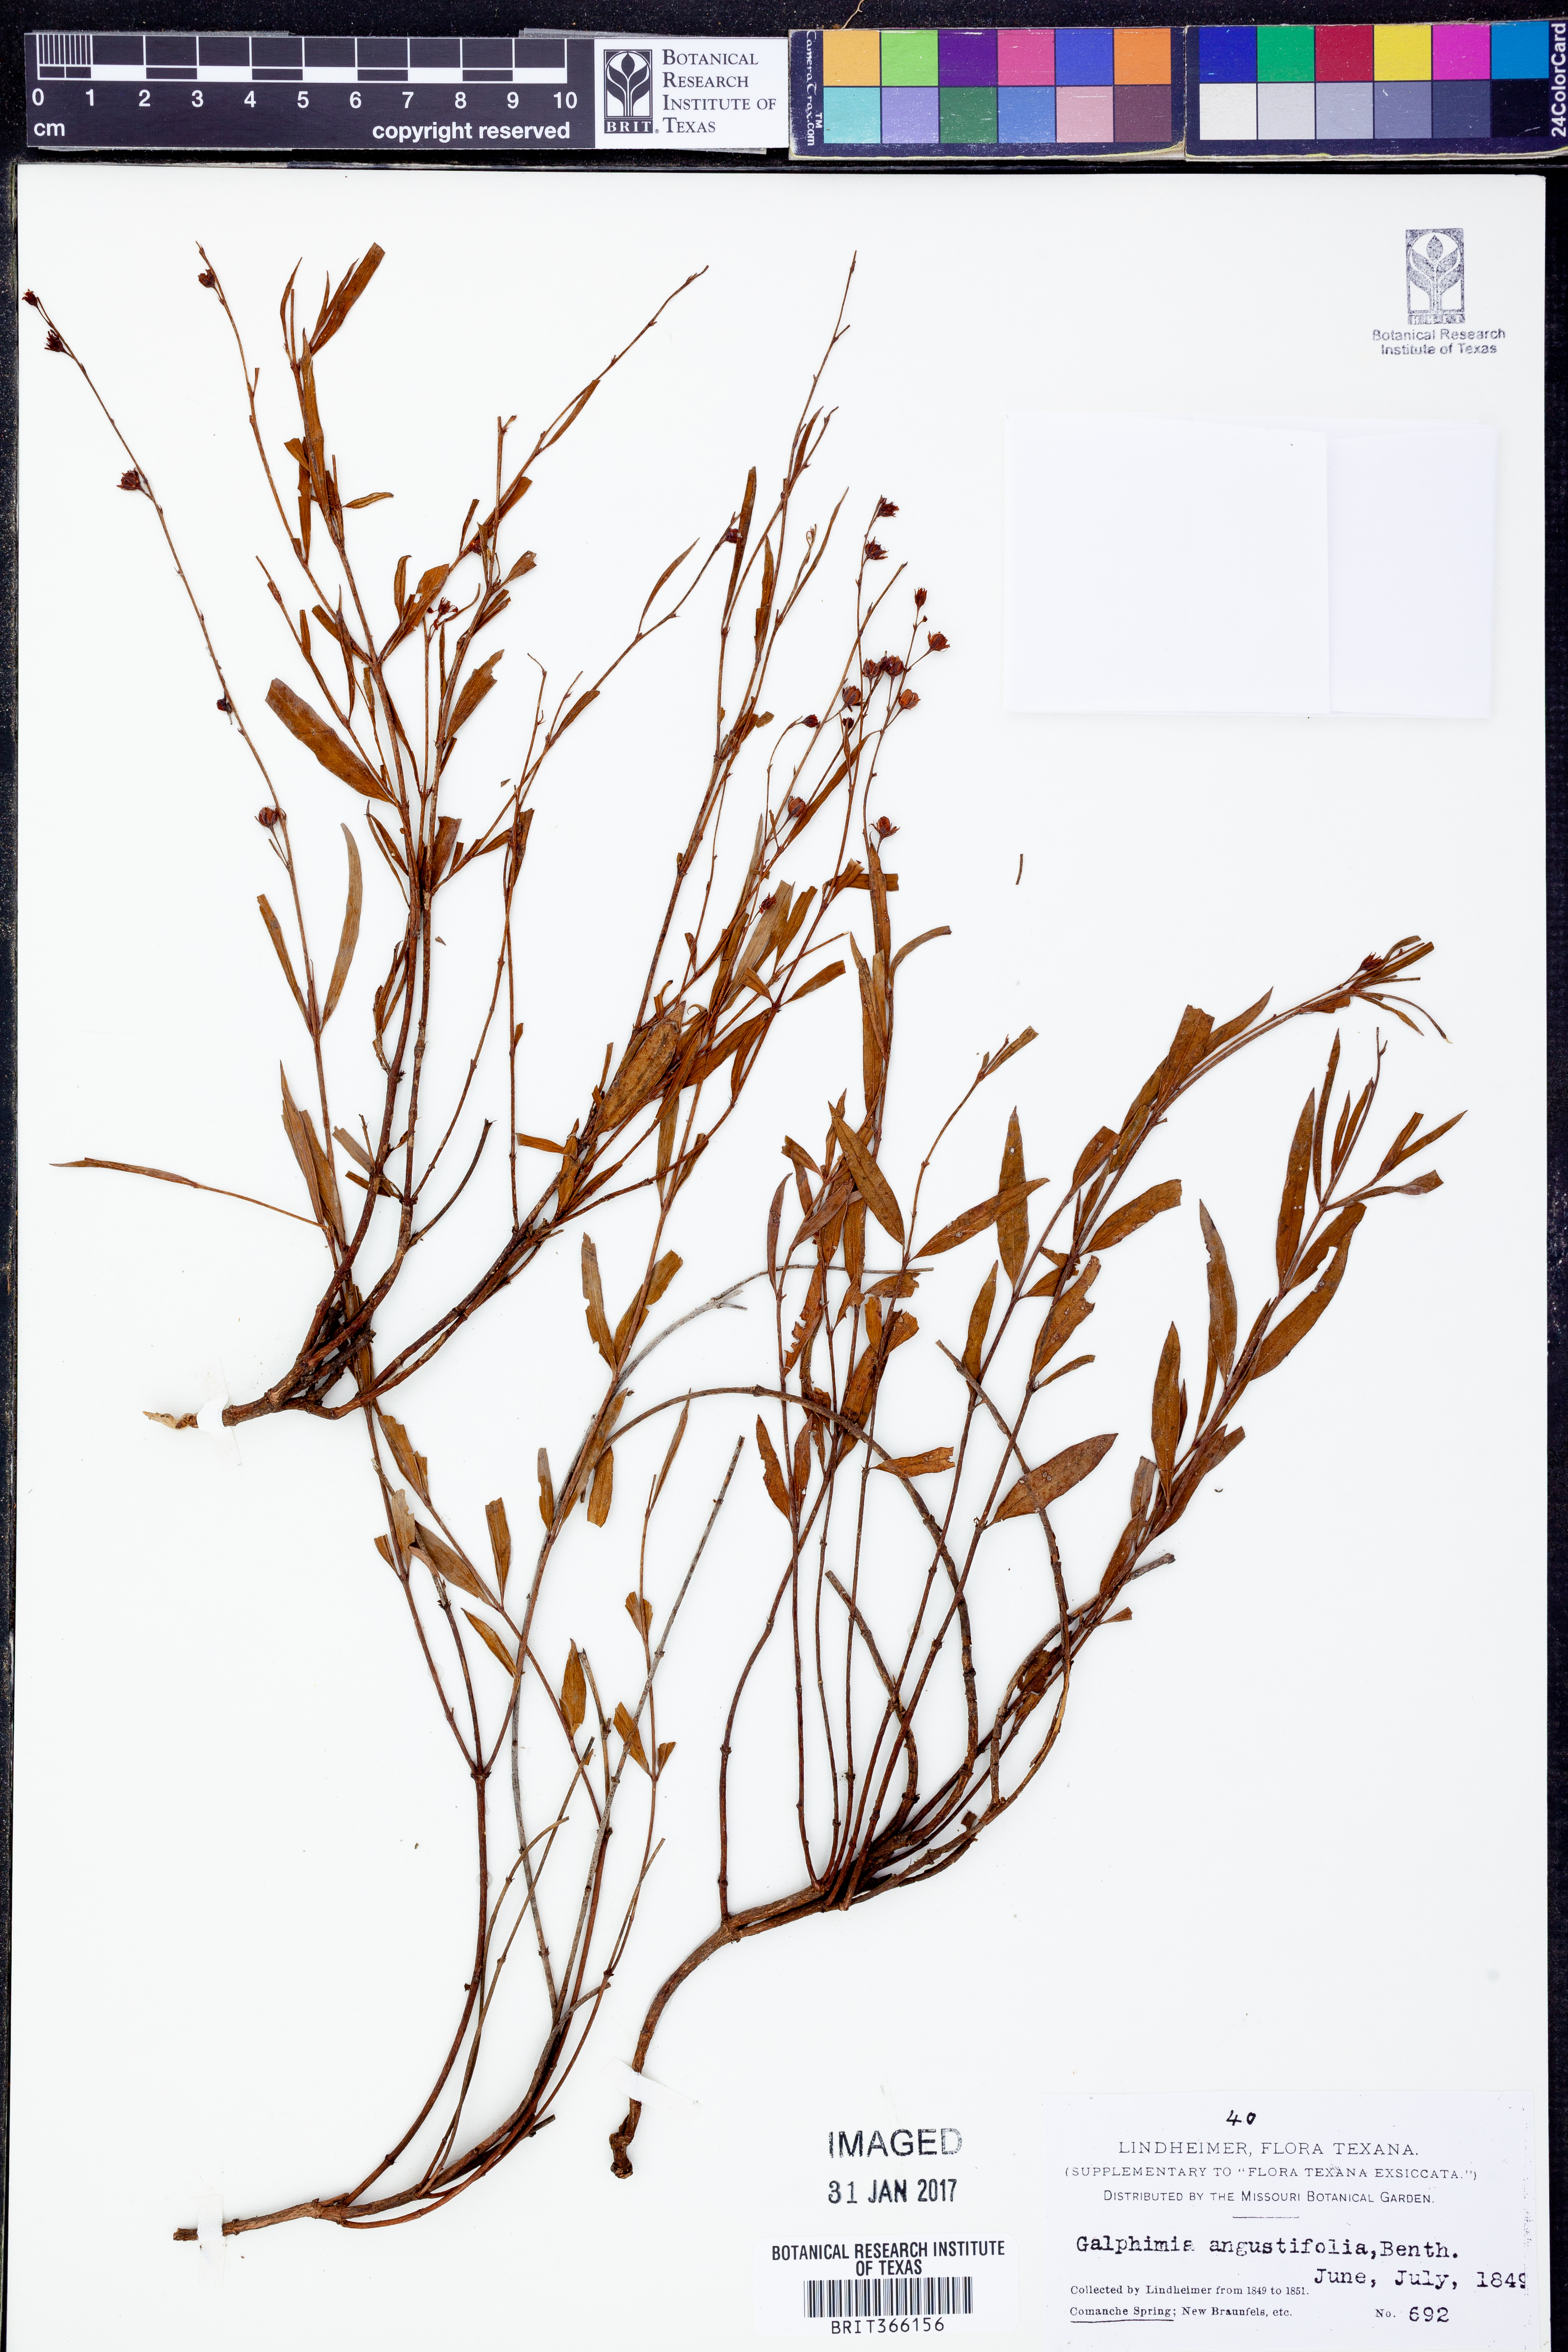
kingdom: Plantae
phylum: Tracheophyta
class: Magnoliopsida
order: Malpighiales
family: Malpighiaceae
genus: Galphimia
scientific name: Galphimia angustifolia
